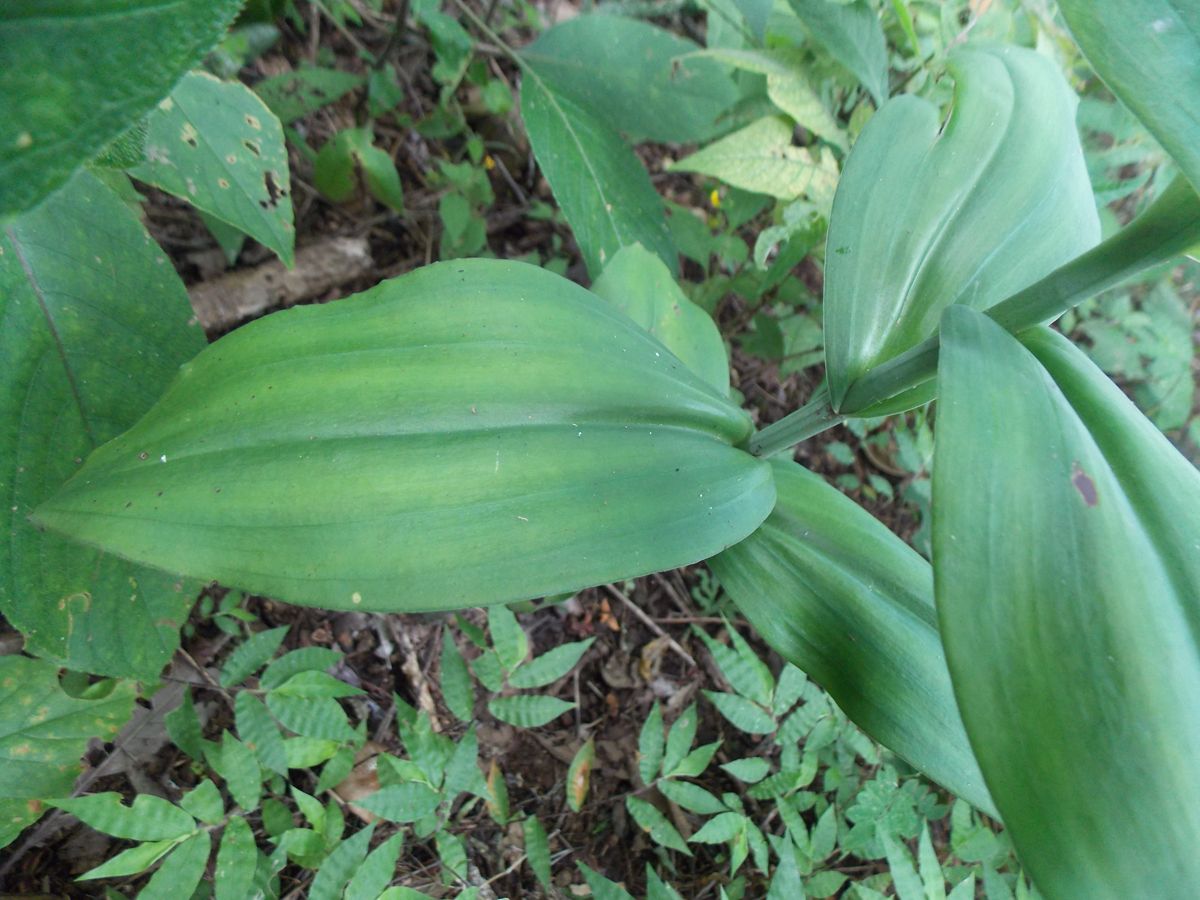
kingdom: Plantae
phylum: Tracheophyta
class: Liliopsida
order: Asparagales
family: Orchidaceae
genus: Habenaria
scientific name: Habenaria quinqueseta
